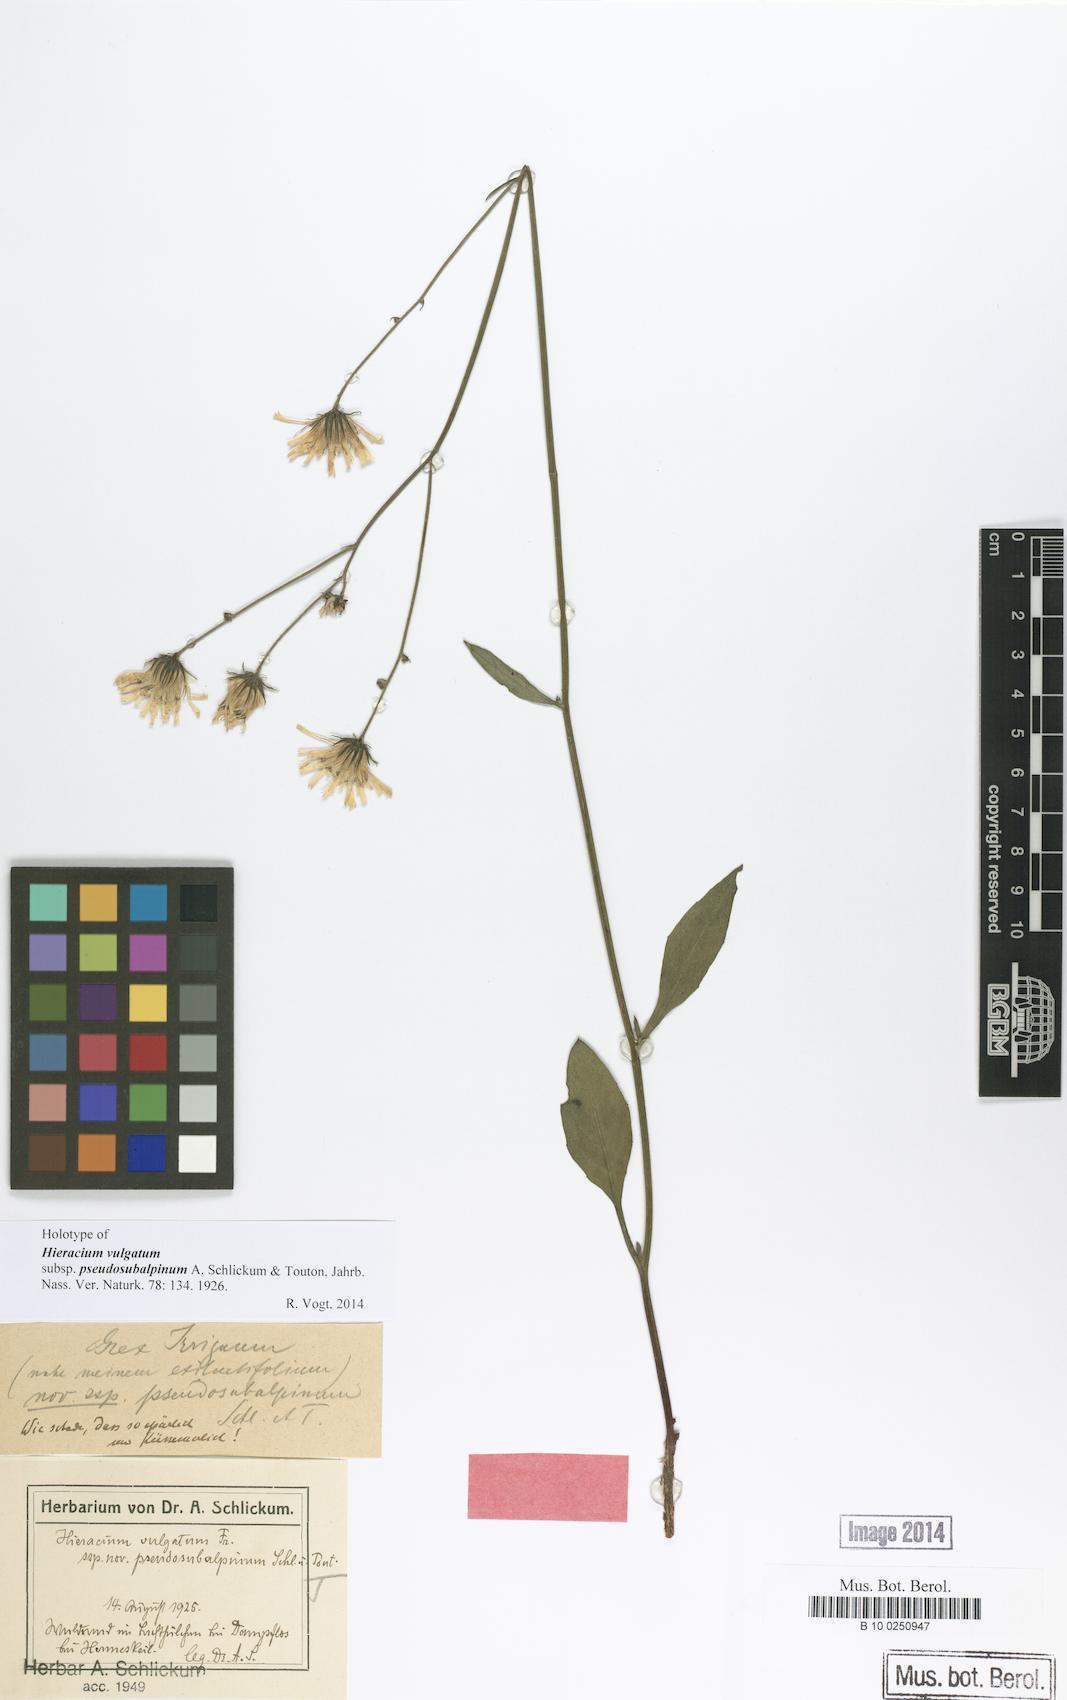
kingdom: Plantae
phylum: Tracheophyta
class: Magnoliopsida
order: Asterales
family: Asteraceae
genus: Hieracium
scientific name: Hieracium levicaule
